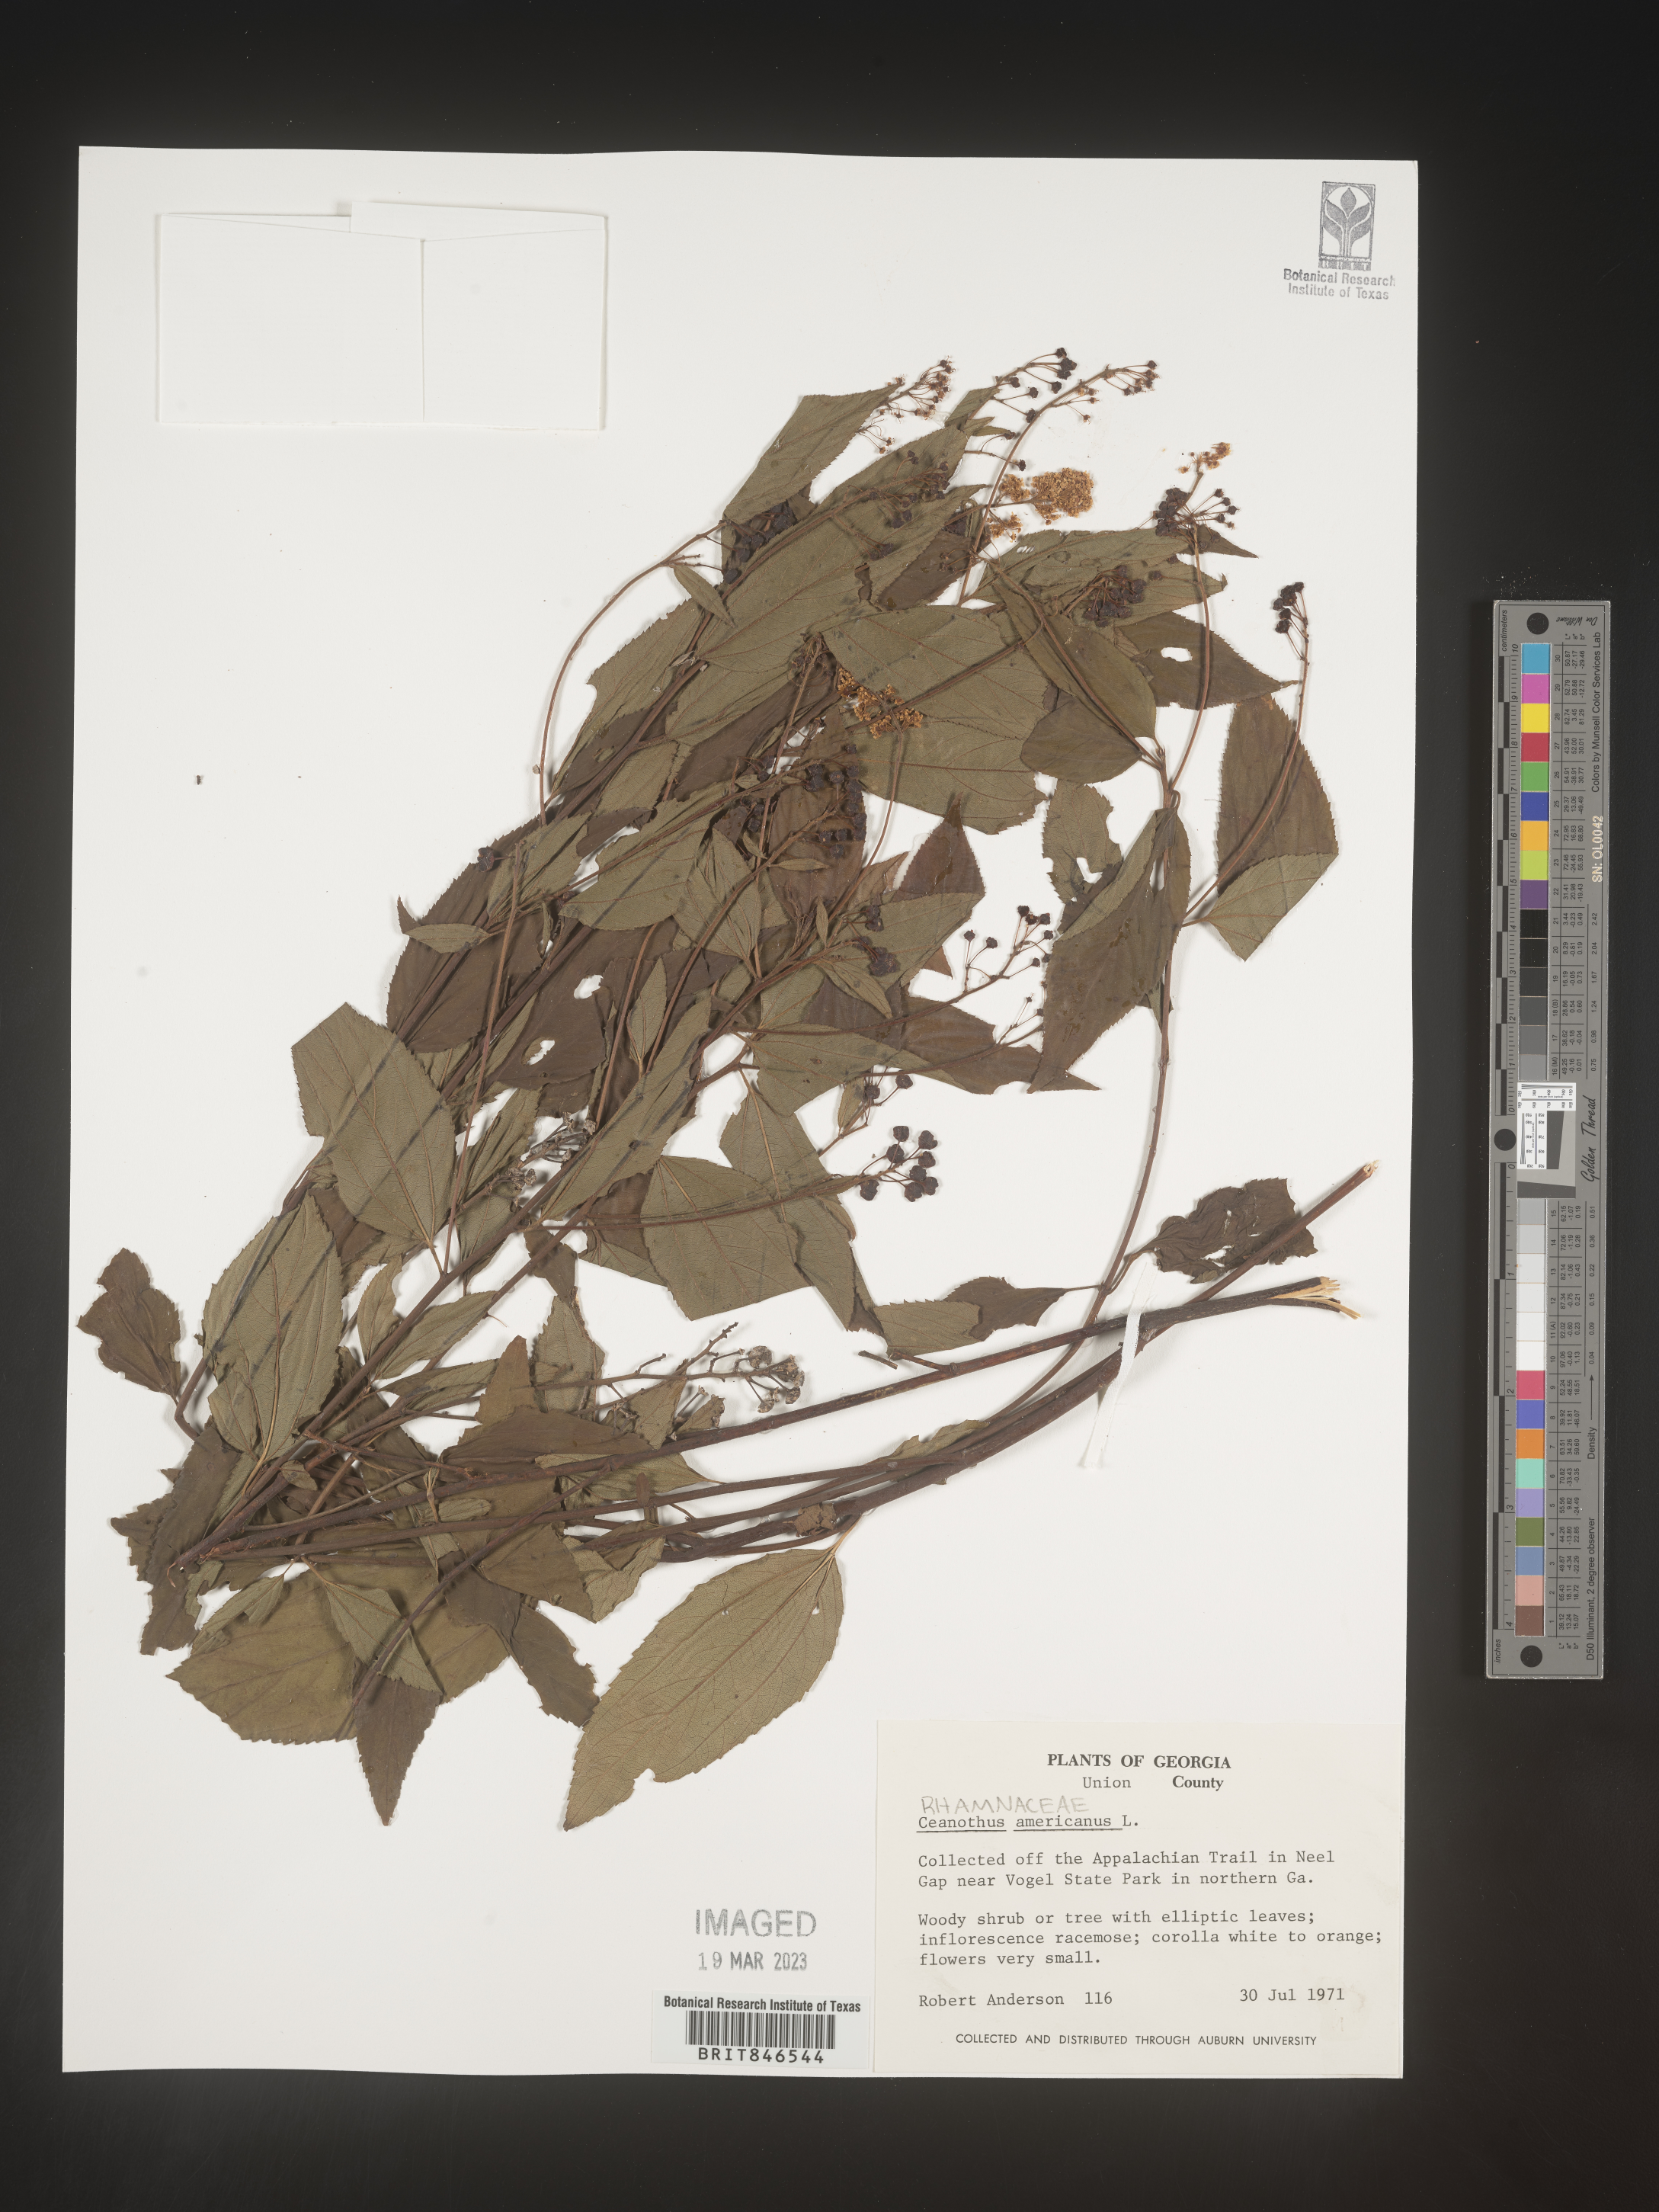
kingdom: Plantae
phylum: Tracheophyta
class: Magnoliopsida
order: Rosales
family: Rhamnaceae
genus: Ceanothus
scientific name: Ceanothus americanus
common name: Redroot
